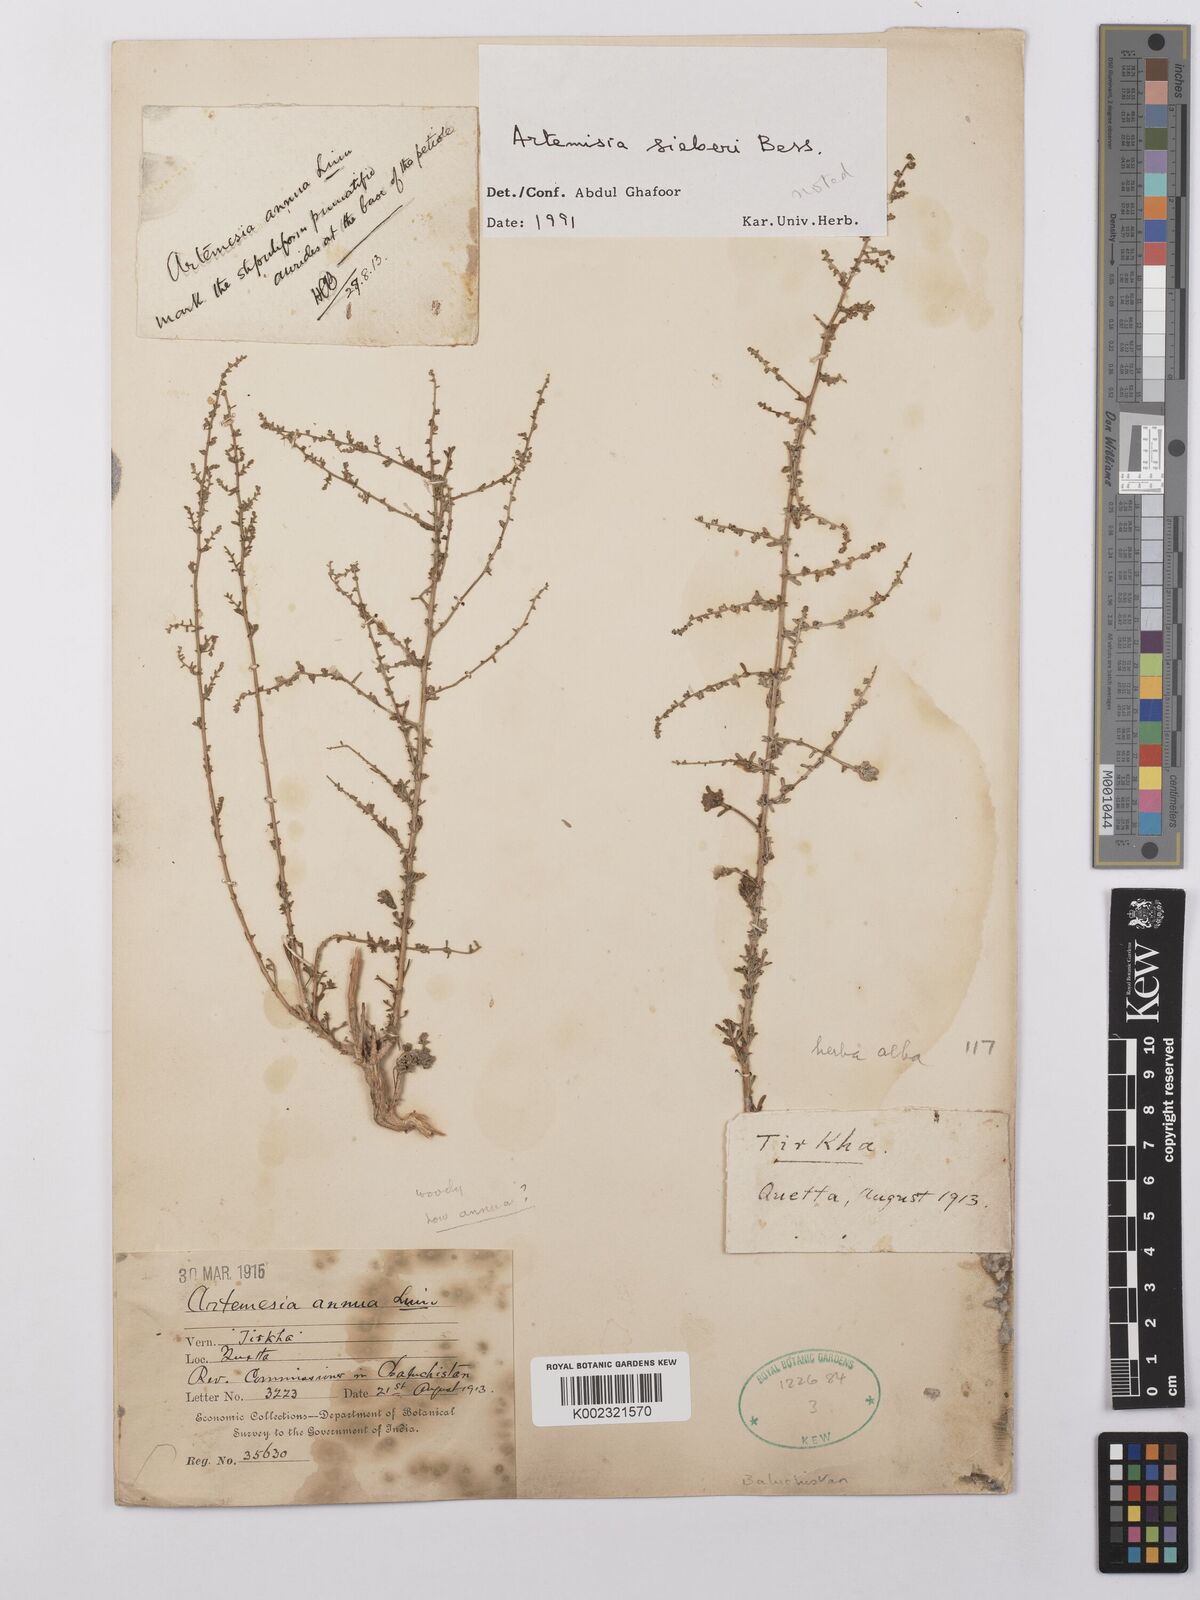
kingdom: Plantae
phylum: Tracheophyta
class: Magnoliopsida
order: Asterales
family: Asteraceae
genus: Artemisia
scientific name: Artemisia sieberi
